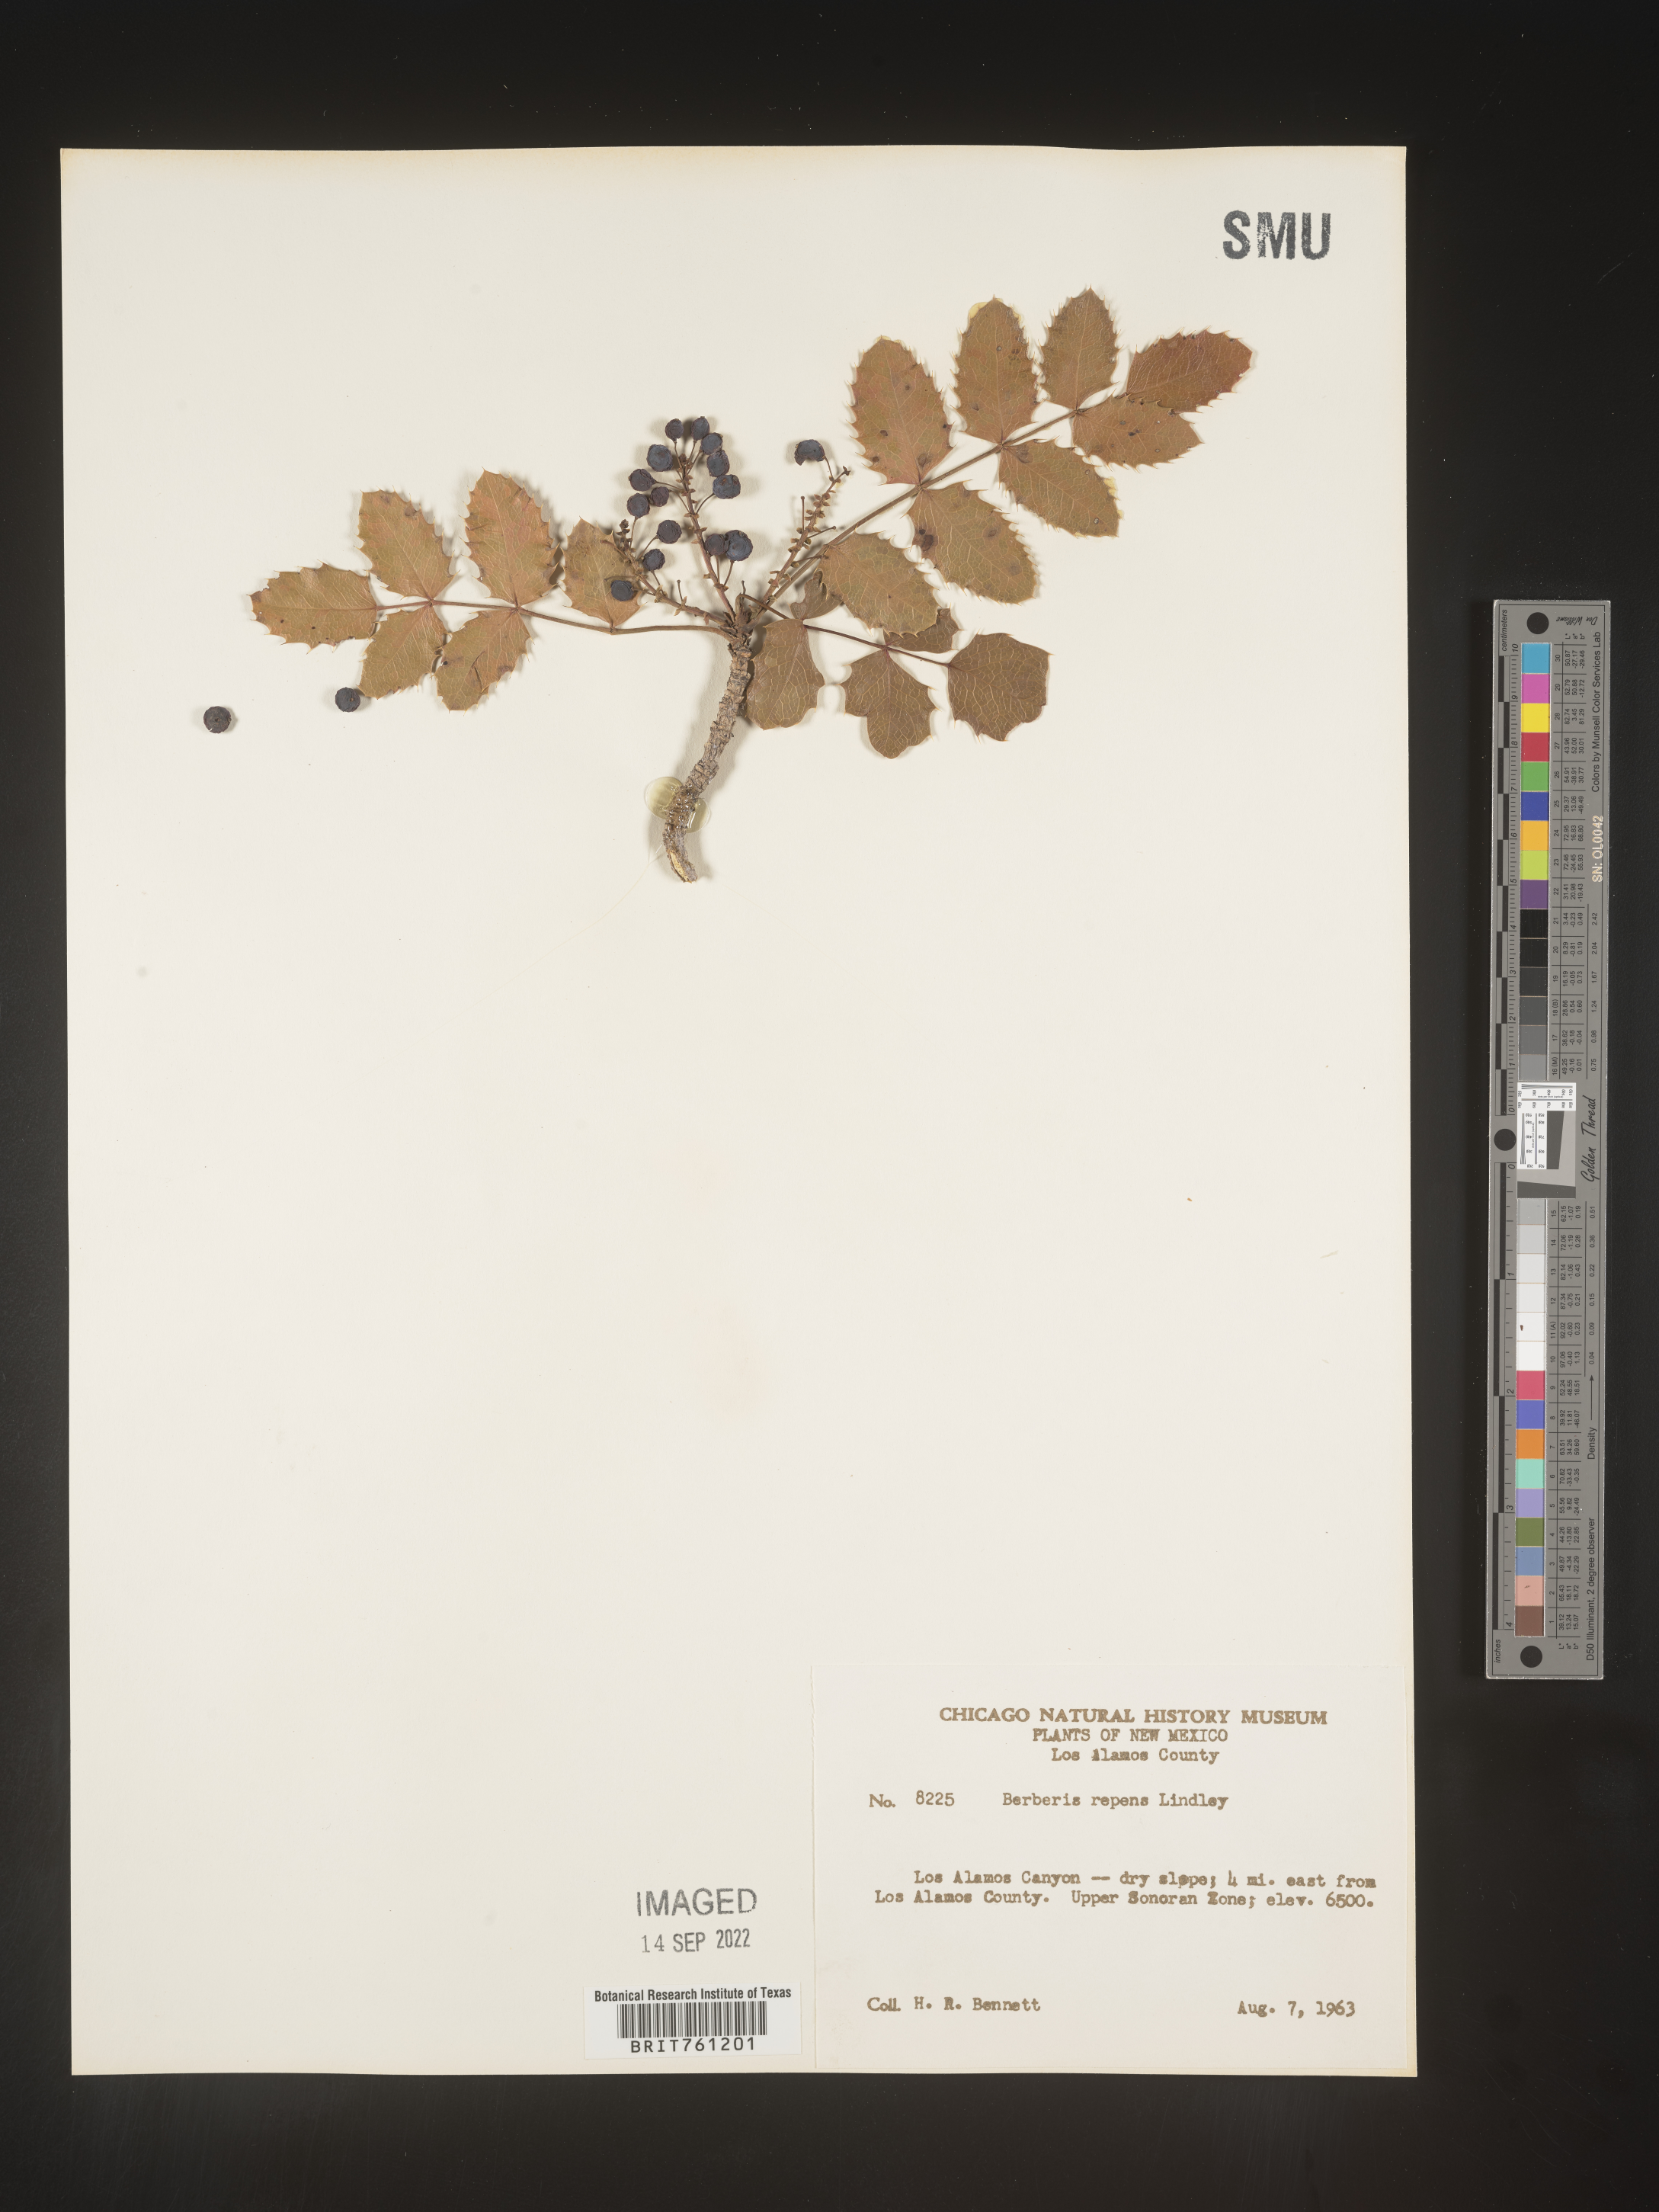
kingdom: Plantae
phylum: Tracheophyta
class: Magnoliopsida
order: Ranunculales
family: Berberidaceae
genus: Mahonia
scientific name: Mahonia repens
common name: Creeping oregon-grape
